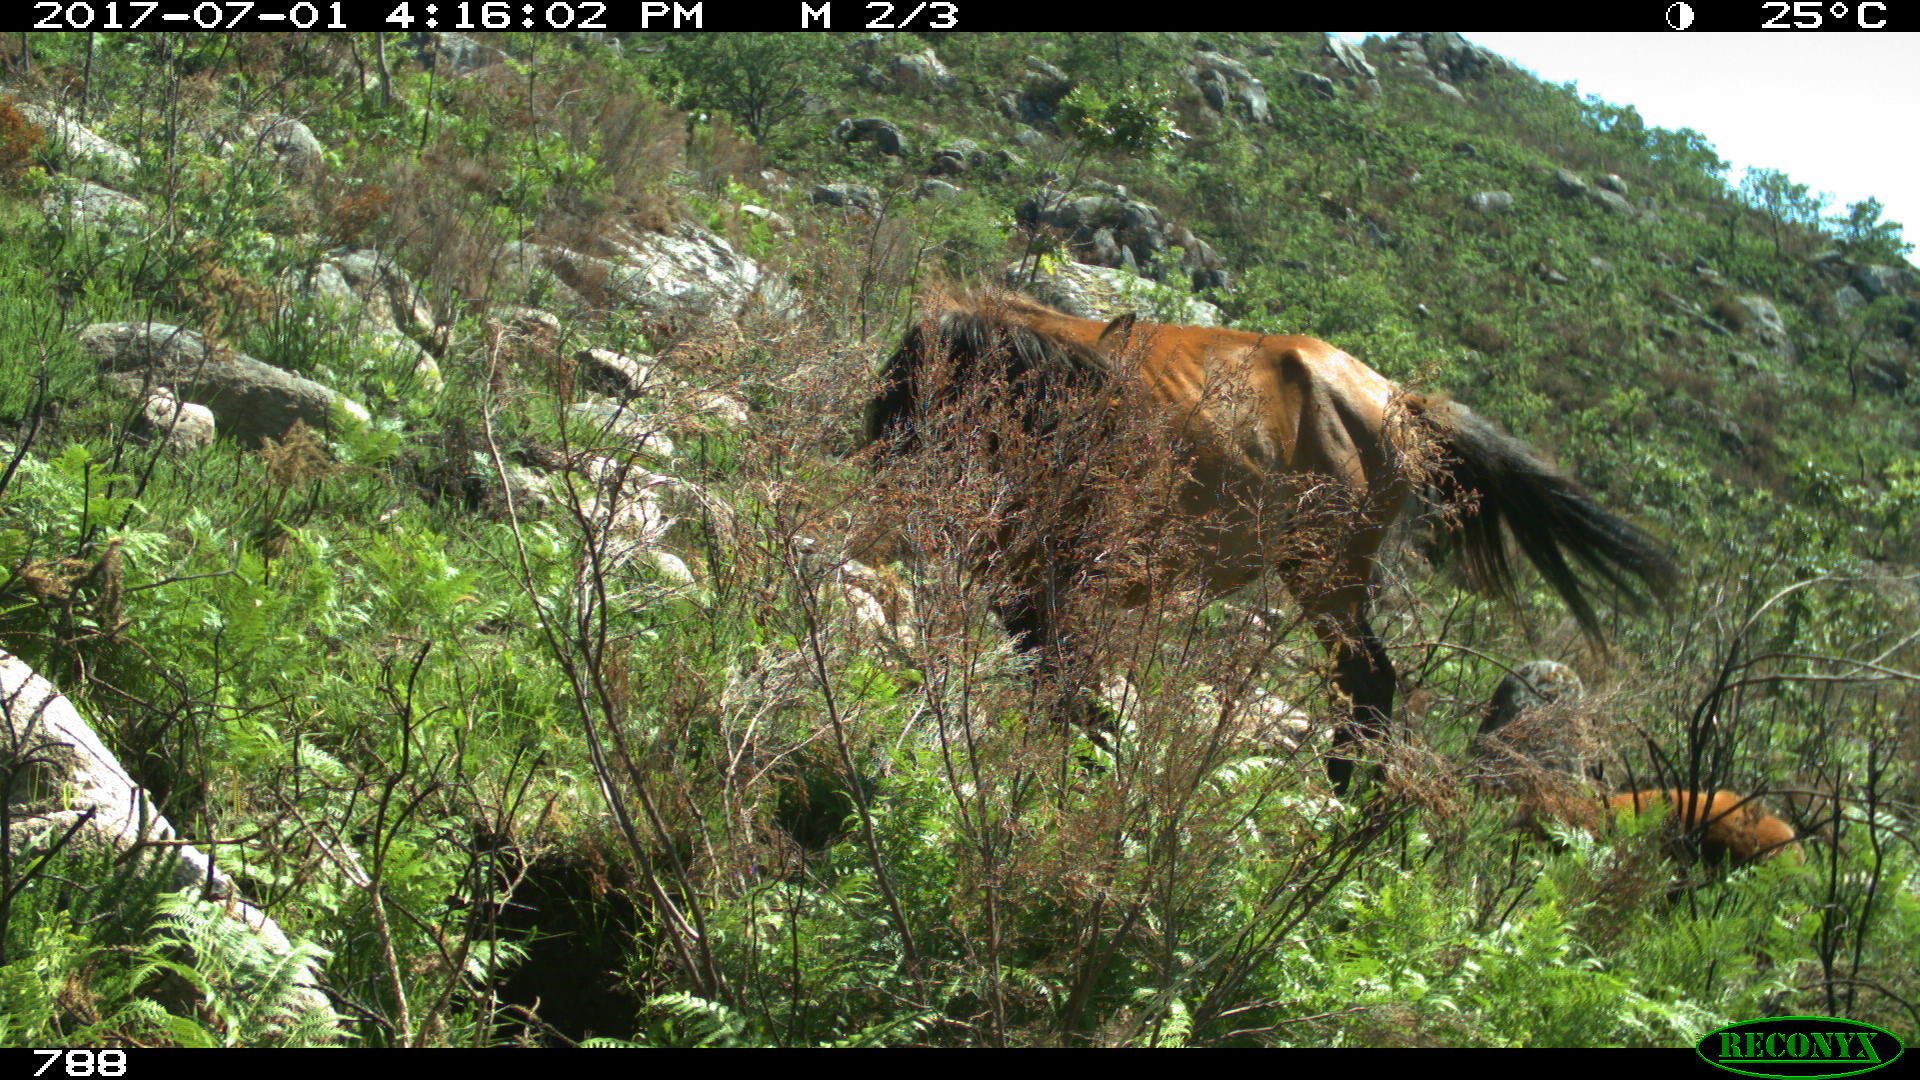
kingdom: Animalia
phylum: Chordata
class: Mammalia
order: Perissodactyla
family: Equidae
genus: Equus
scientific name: Equus caballus
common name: Horse
